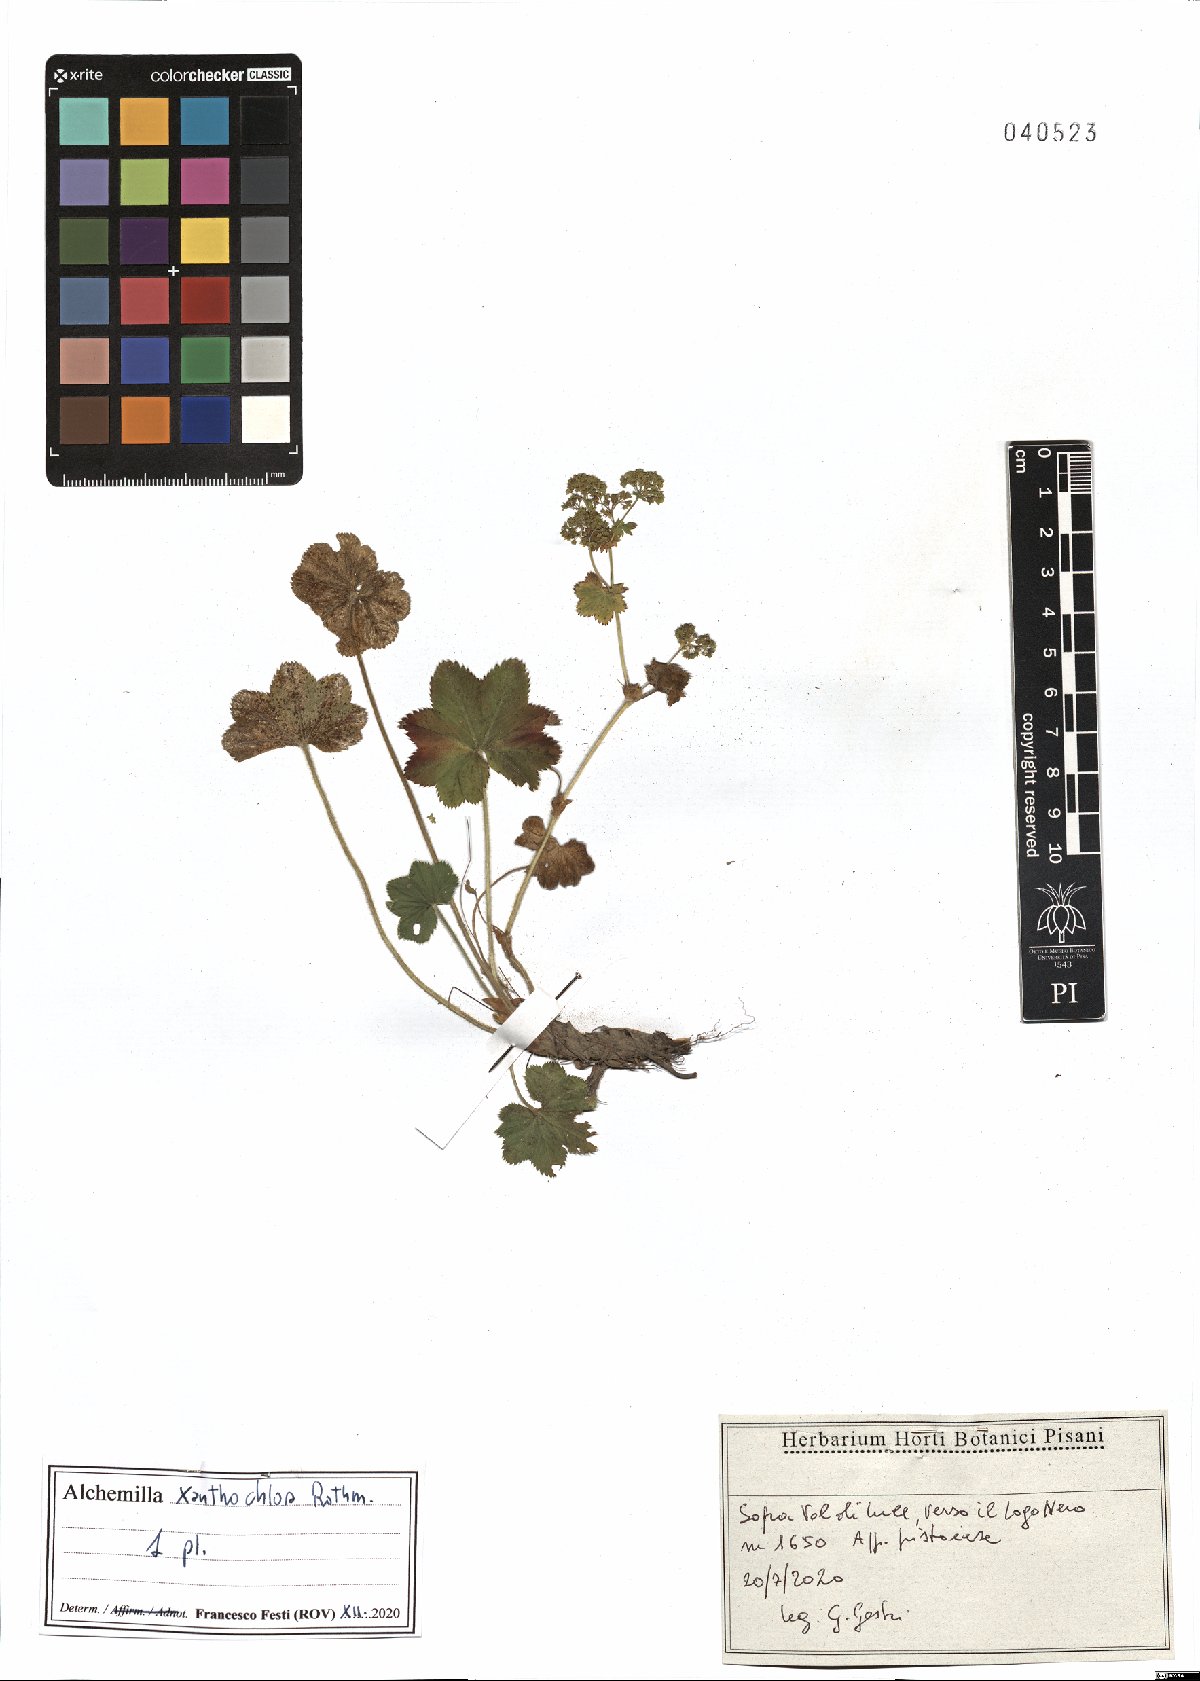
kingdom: Plantae
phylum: Tracheophyta
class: Magnoliopsida
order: Rosales
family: Rosaceae
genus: Alchemilla
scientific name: Alchemilla xanthochlora
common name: Intermediate lady's-mantle
